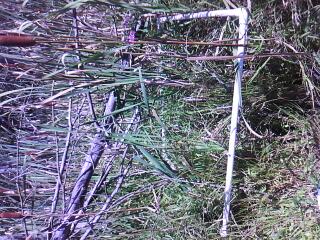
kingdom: Plantae
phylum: Tracheophyta
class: Magnoliopsida
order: Rosales
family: Urticaceae
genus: Pilea
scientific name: Pilea fontana
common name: Clearweed
